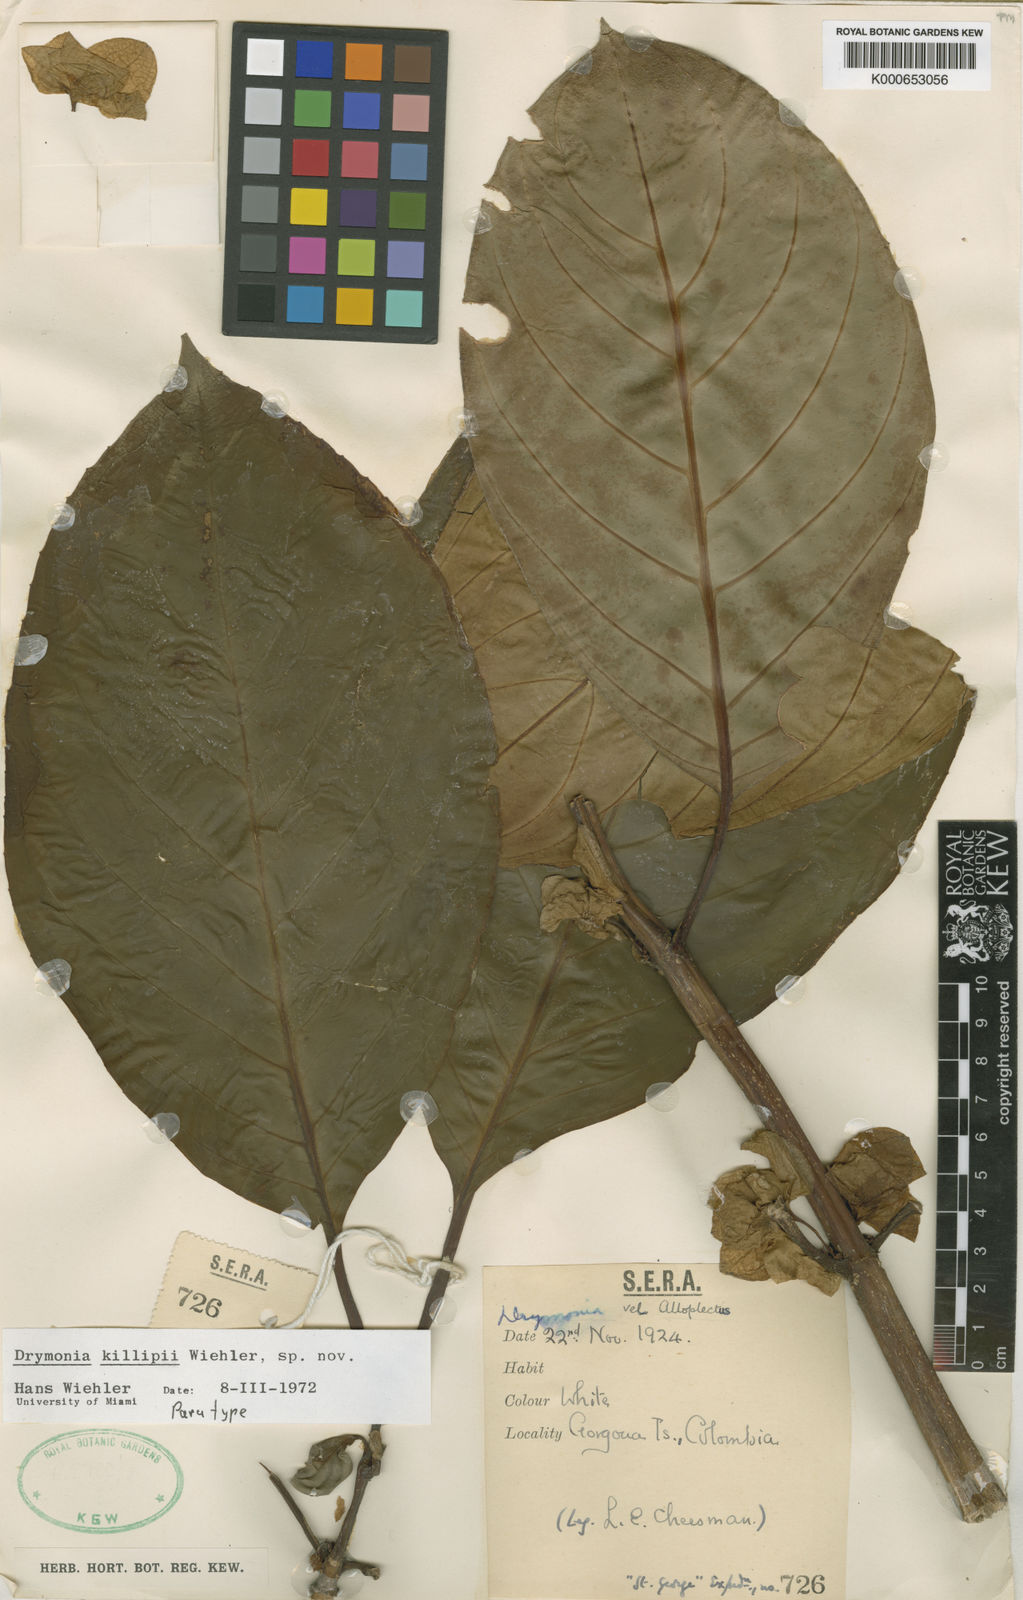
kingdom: Plantae
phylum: Tracheophyta
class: Magnoliopsida
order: Lamiales
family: Gesneriaceae
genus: Drymonia
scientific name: Drymonia killipii
